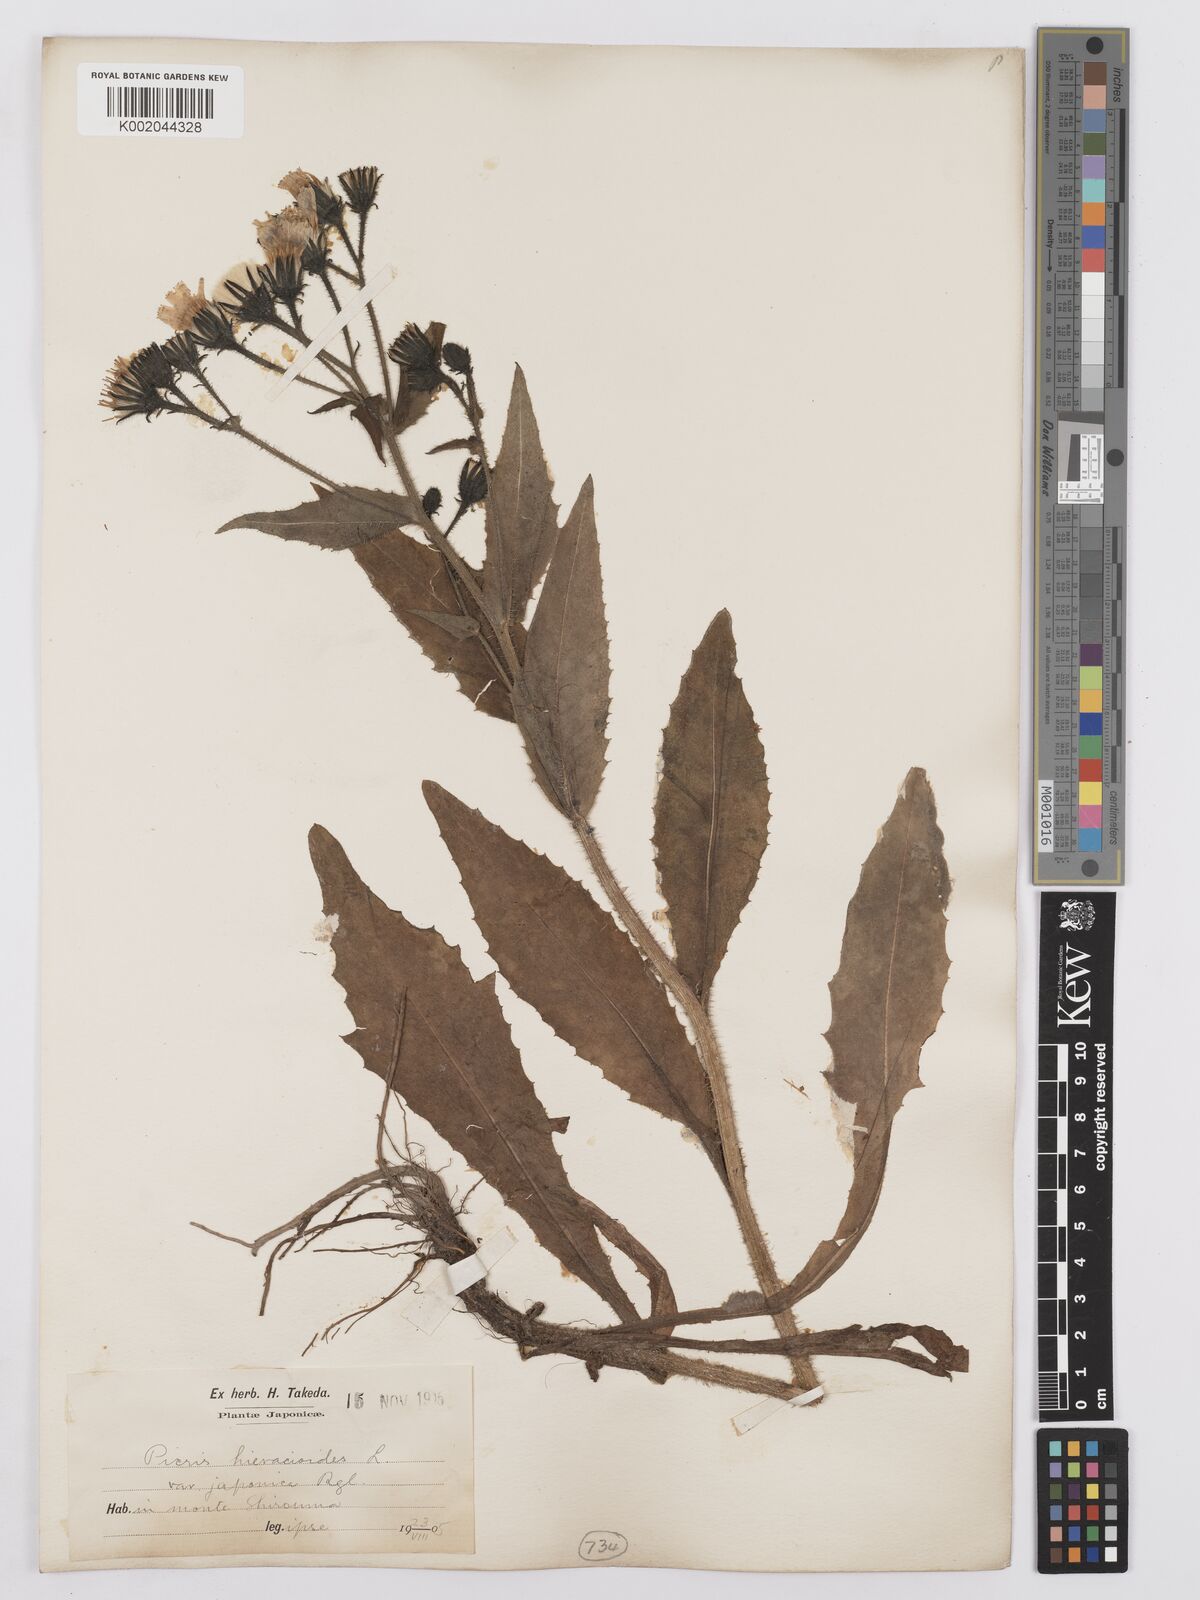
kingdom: Plantae
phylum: Tracheophyta
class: Magnoliopsida
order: Asterales
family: Asteraceae
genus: Picris
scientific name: Picris hieracioides
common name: Hawkweed oxtongue
